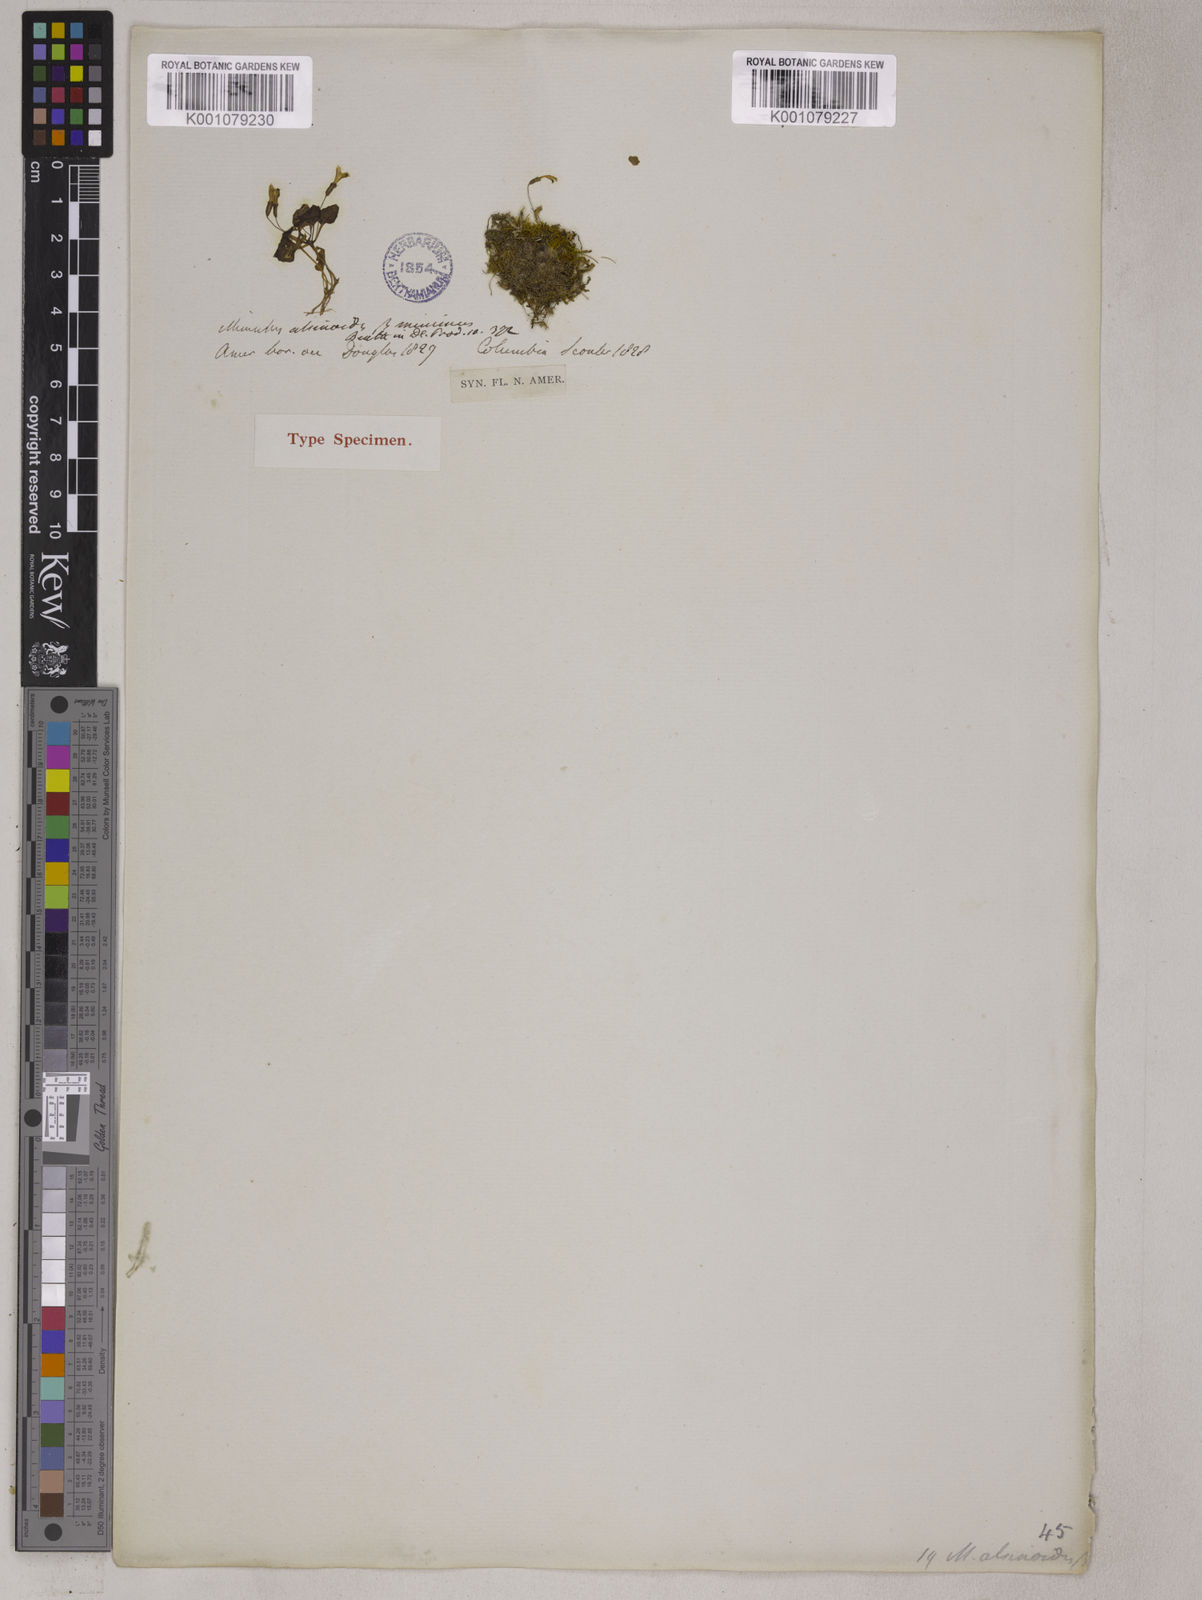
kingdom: Plantae
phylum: Tracheophyta
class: Magnoliopsida
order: Lamiales
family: Phrymaceae
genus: Mimulus
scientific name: Mimulus
